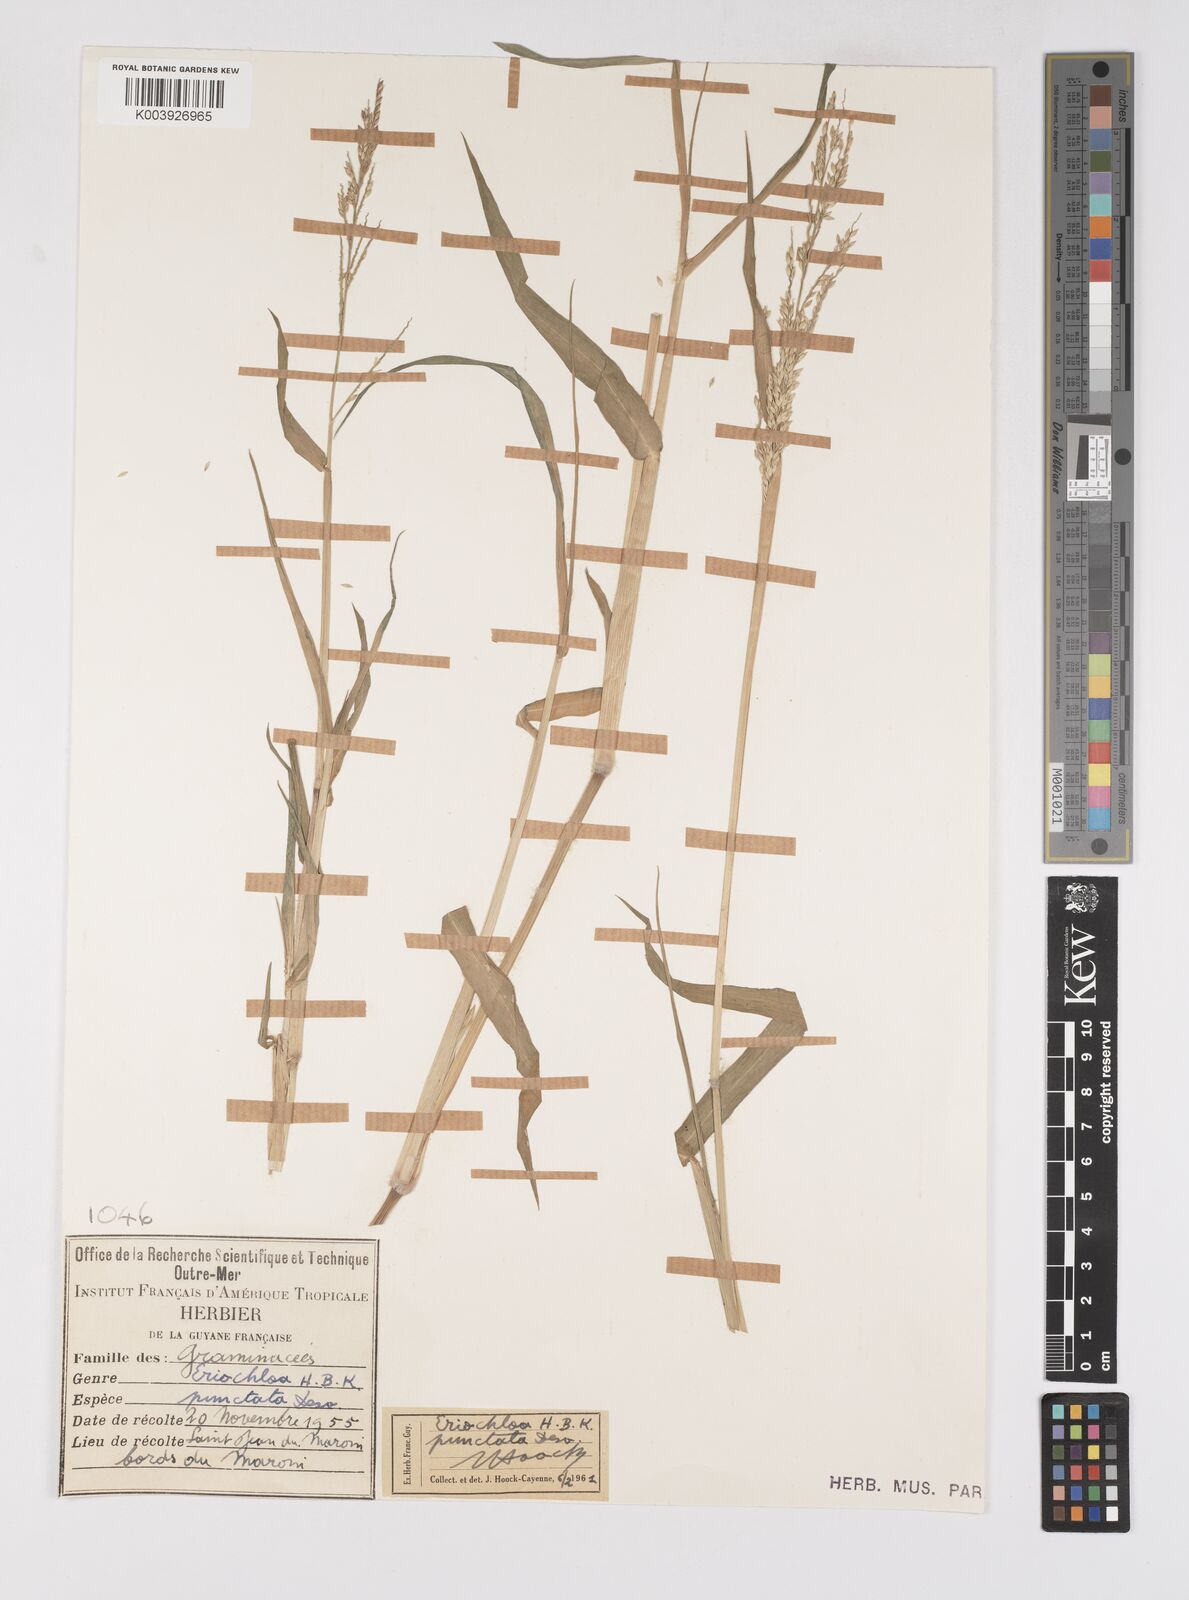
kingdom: Plantae
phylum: Tracheophyta
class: Liliopsida
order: Poales
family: Poaceae
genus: Eriochloa
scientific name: Eriochloa punctata
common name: Louisiana cupgrass
